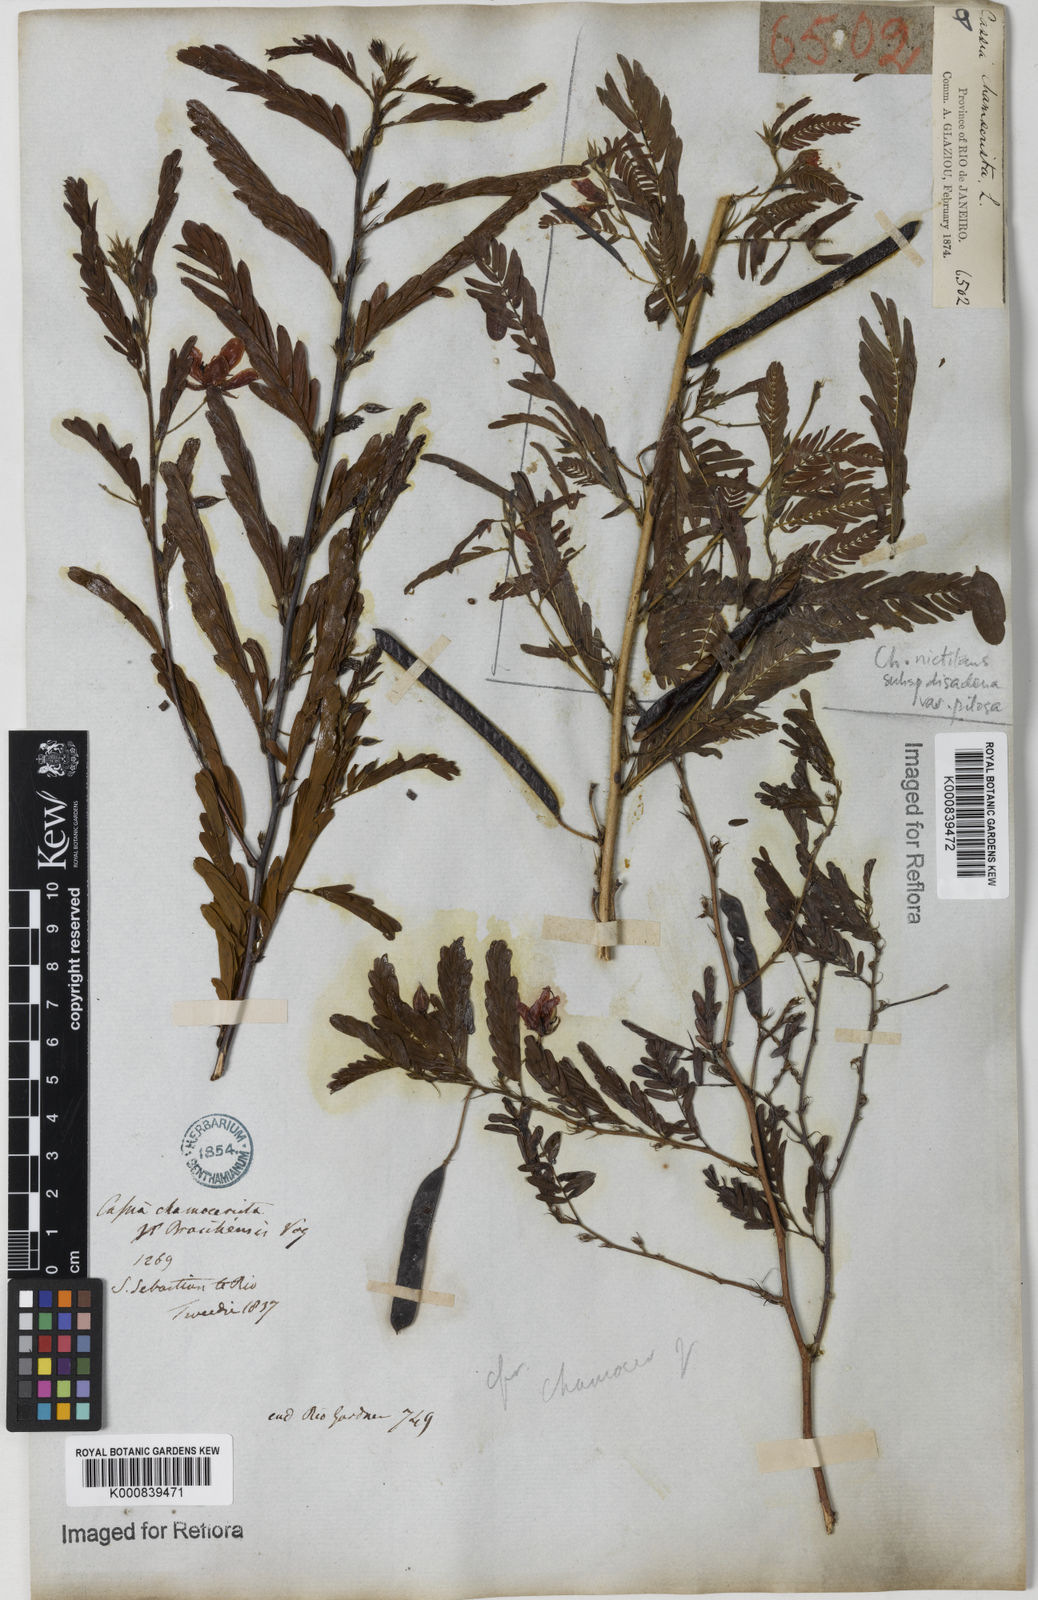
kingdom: Plantae
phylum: Tracheophyta
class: Magnoliopsida
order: Fabales
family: Fabaceae
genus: Chamaecrista
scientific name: Chamaecrista glandulosa
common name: Wild peas
